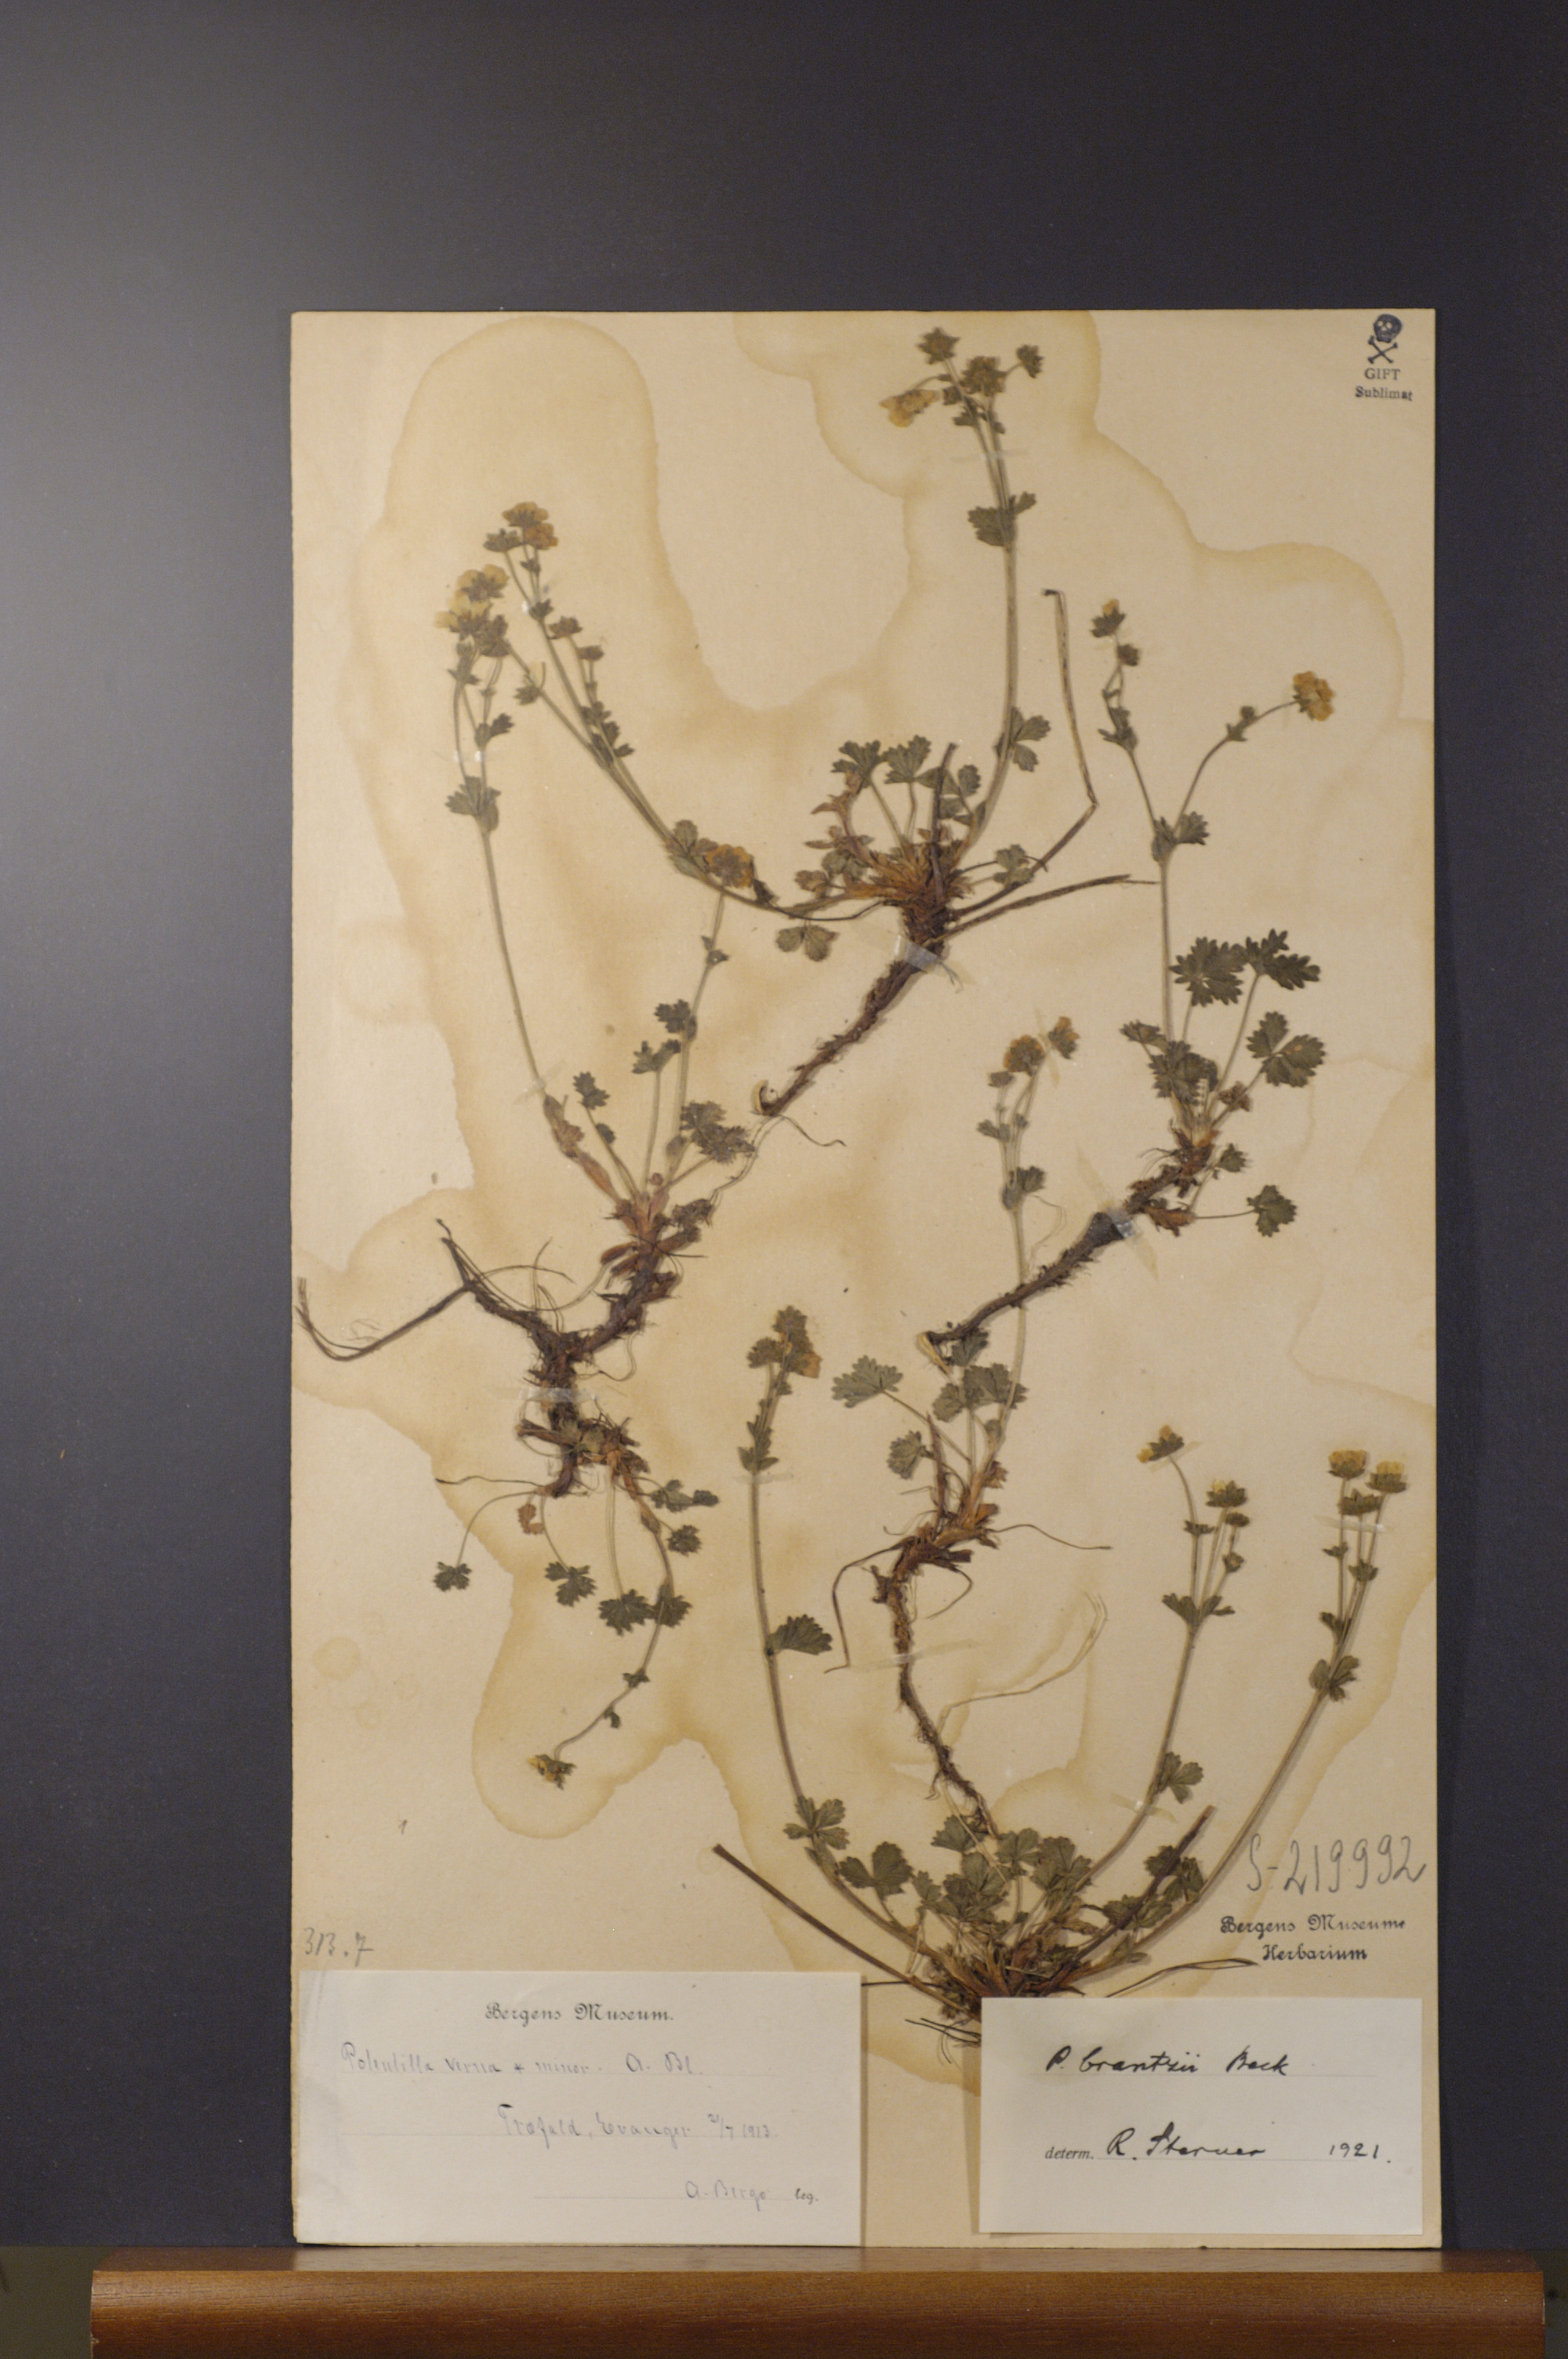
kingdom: Plantae
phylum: Tracheophyta
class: Magnoliopsida
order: Rosales
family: Rosaceae
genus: Potentilla
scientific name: Potentilla crantzii
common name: Alpine cinquefoil
